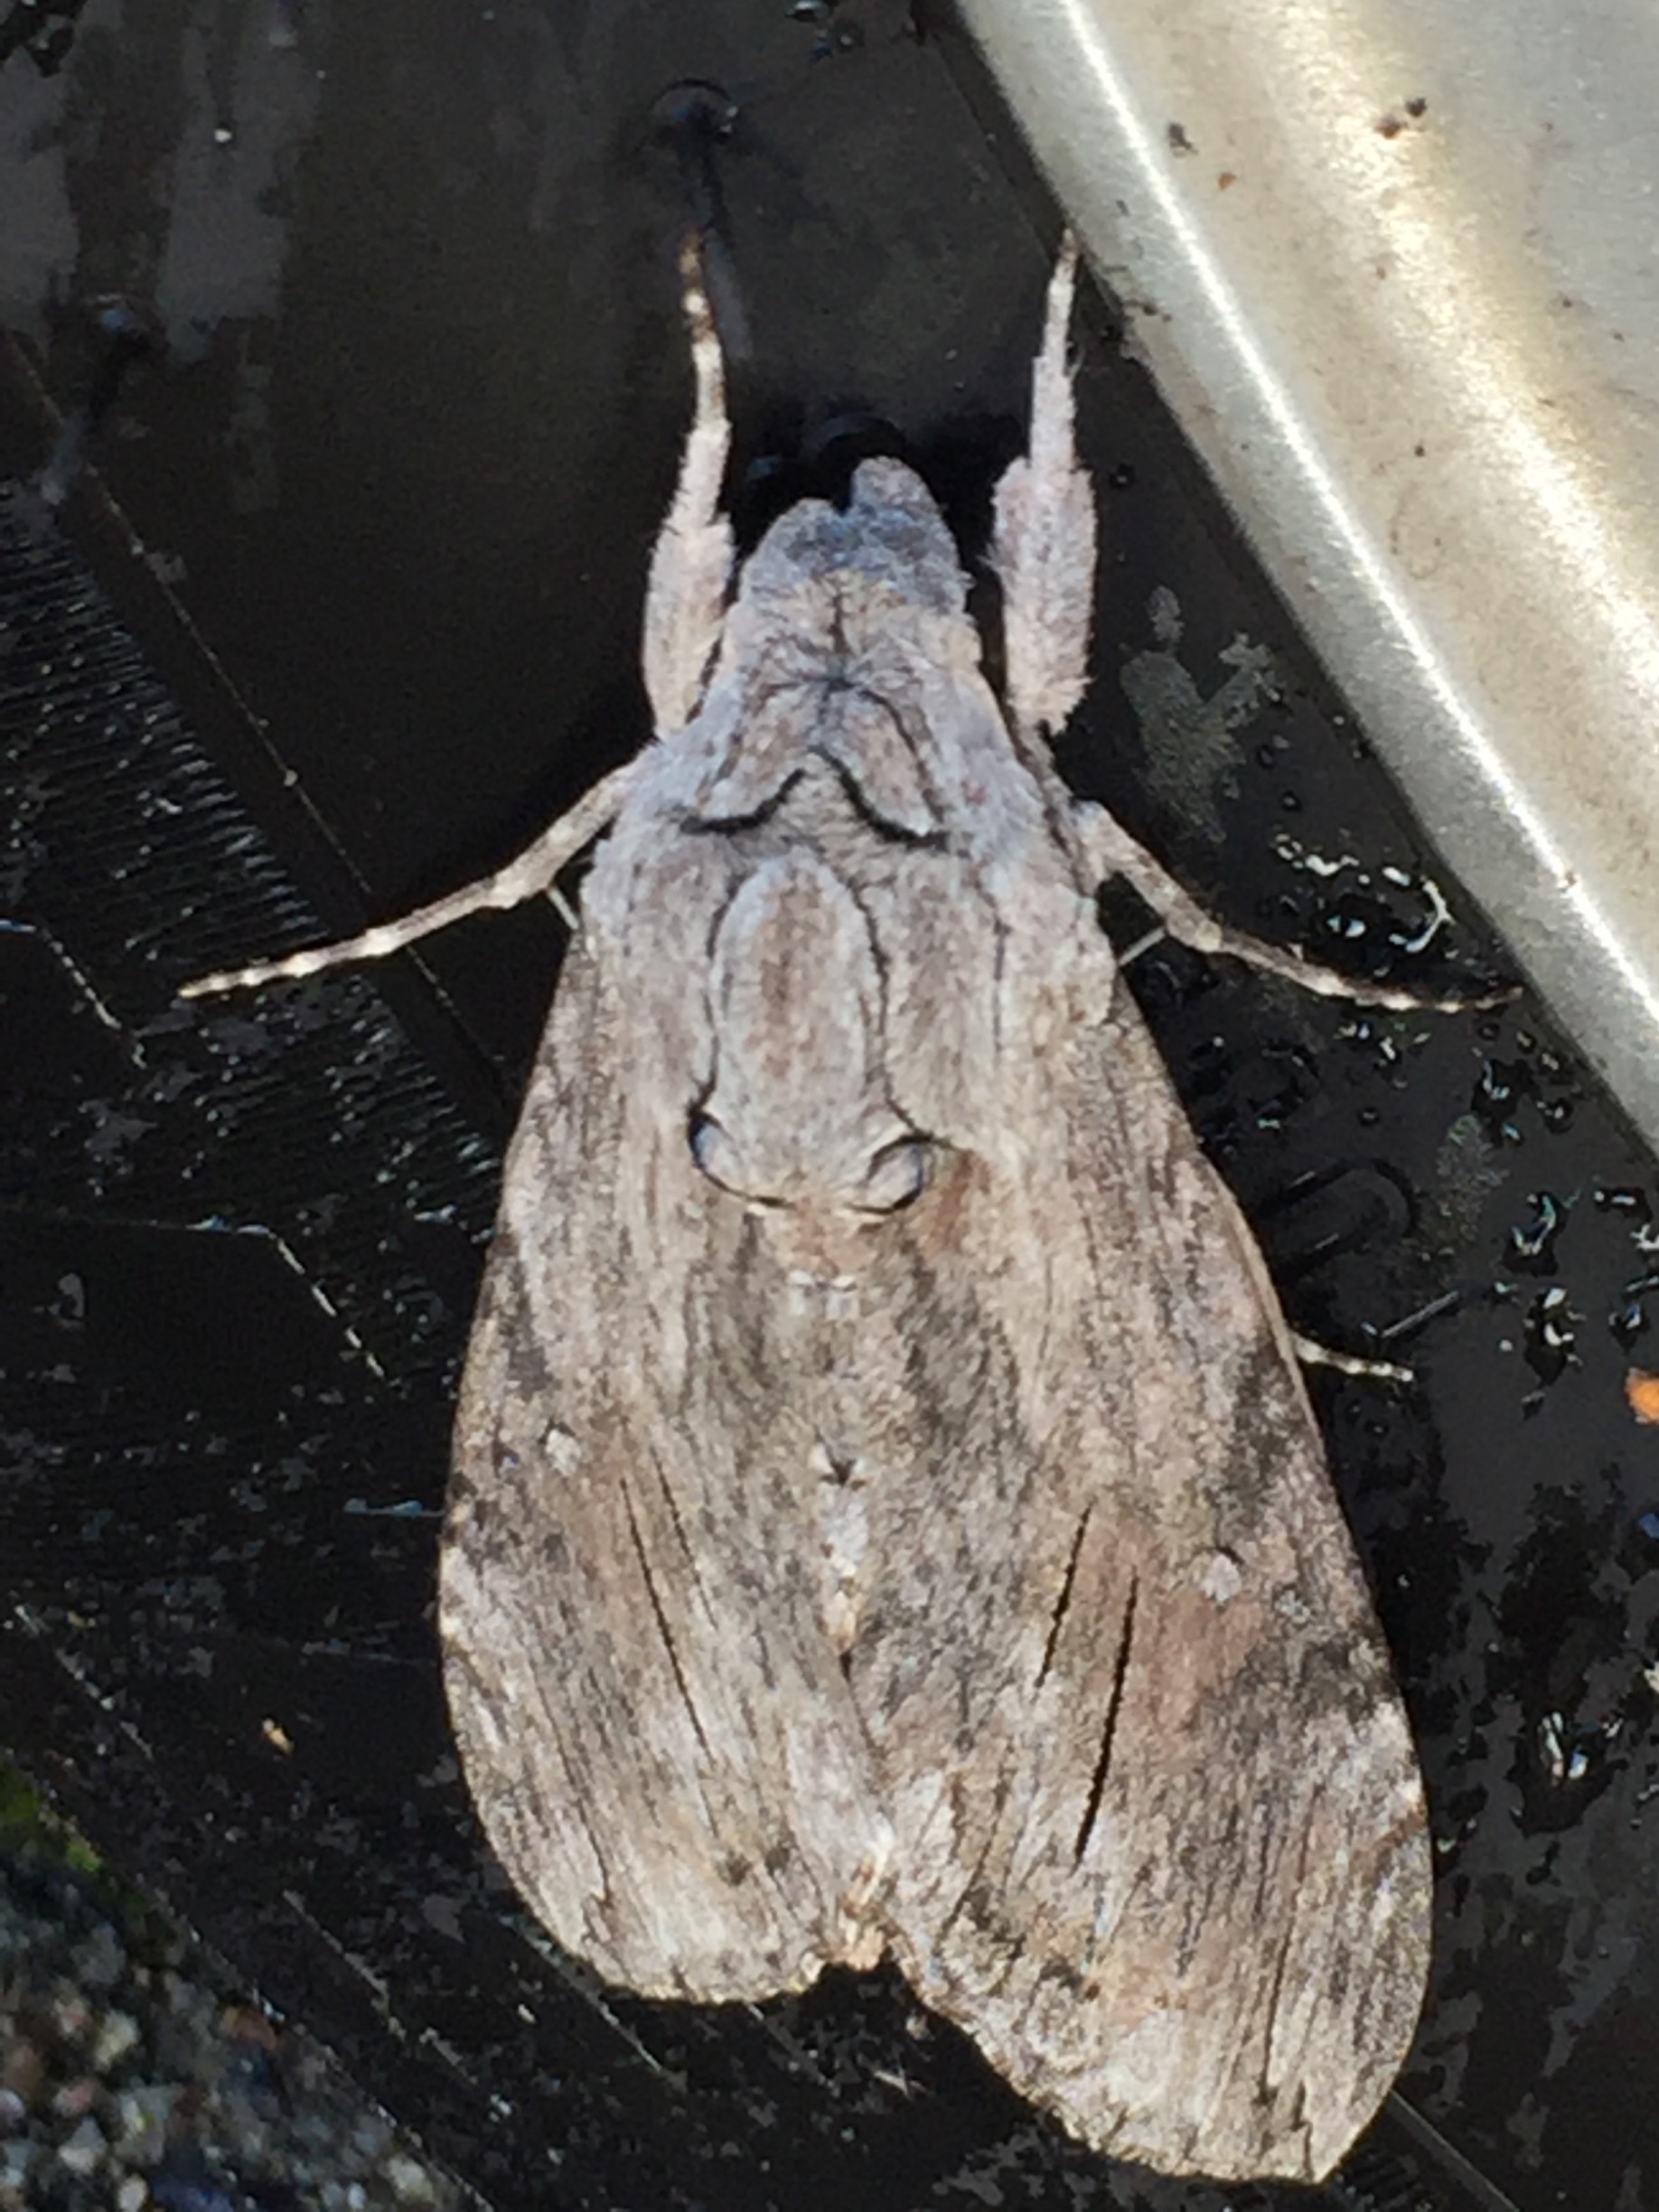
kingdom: Animalia
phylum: Arthropoda
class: Insecta
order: Lepidoptera
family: Sphingidae
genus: Agrius
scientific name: Agrius convolvuli
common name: Snerlesværmer
